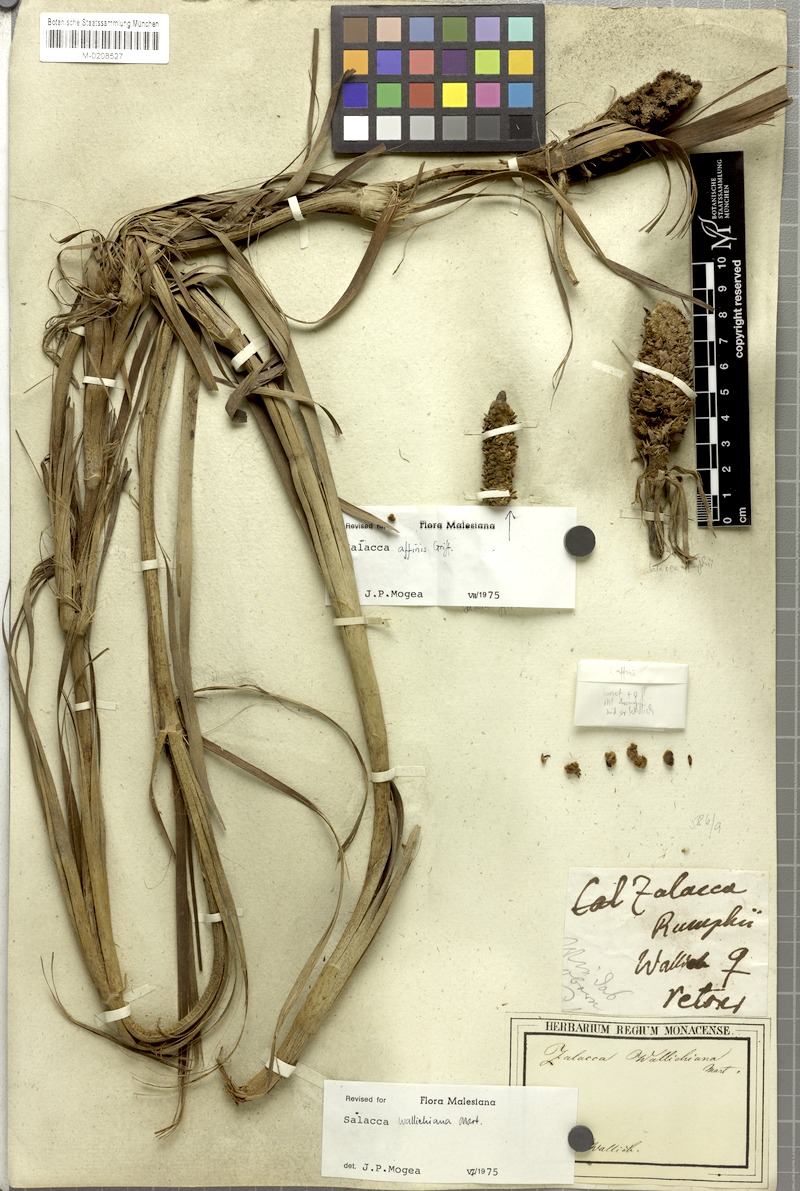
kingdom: Plantae
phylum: Tracheophyta
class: Liliopsida
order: Arecales
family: Arecaceae
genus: Salacca
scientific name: Salacca wallichiana
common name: Rakum palm
